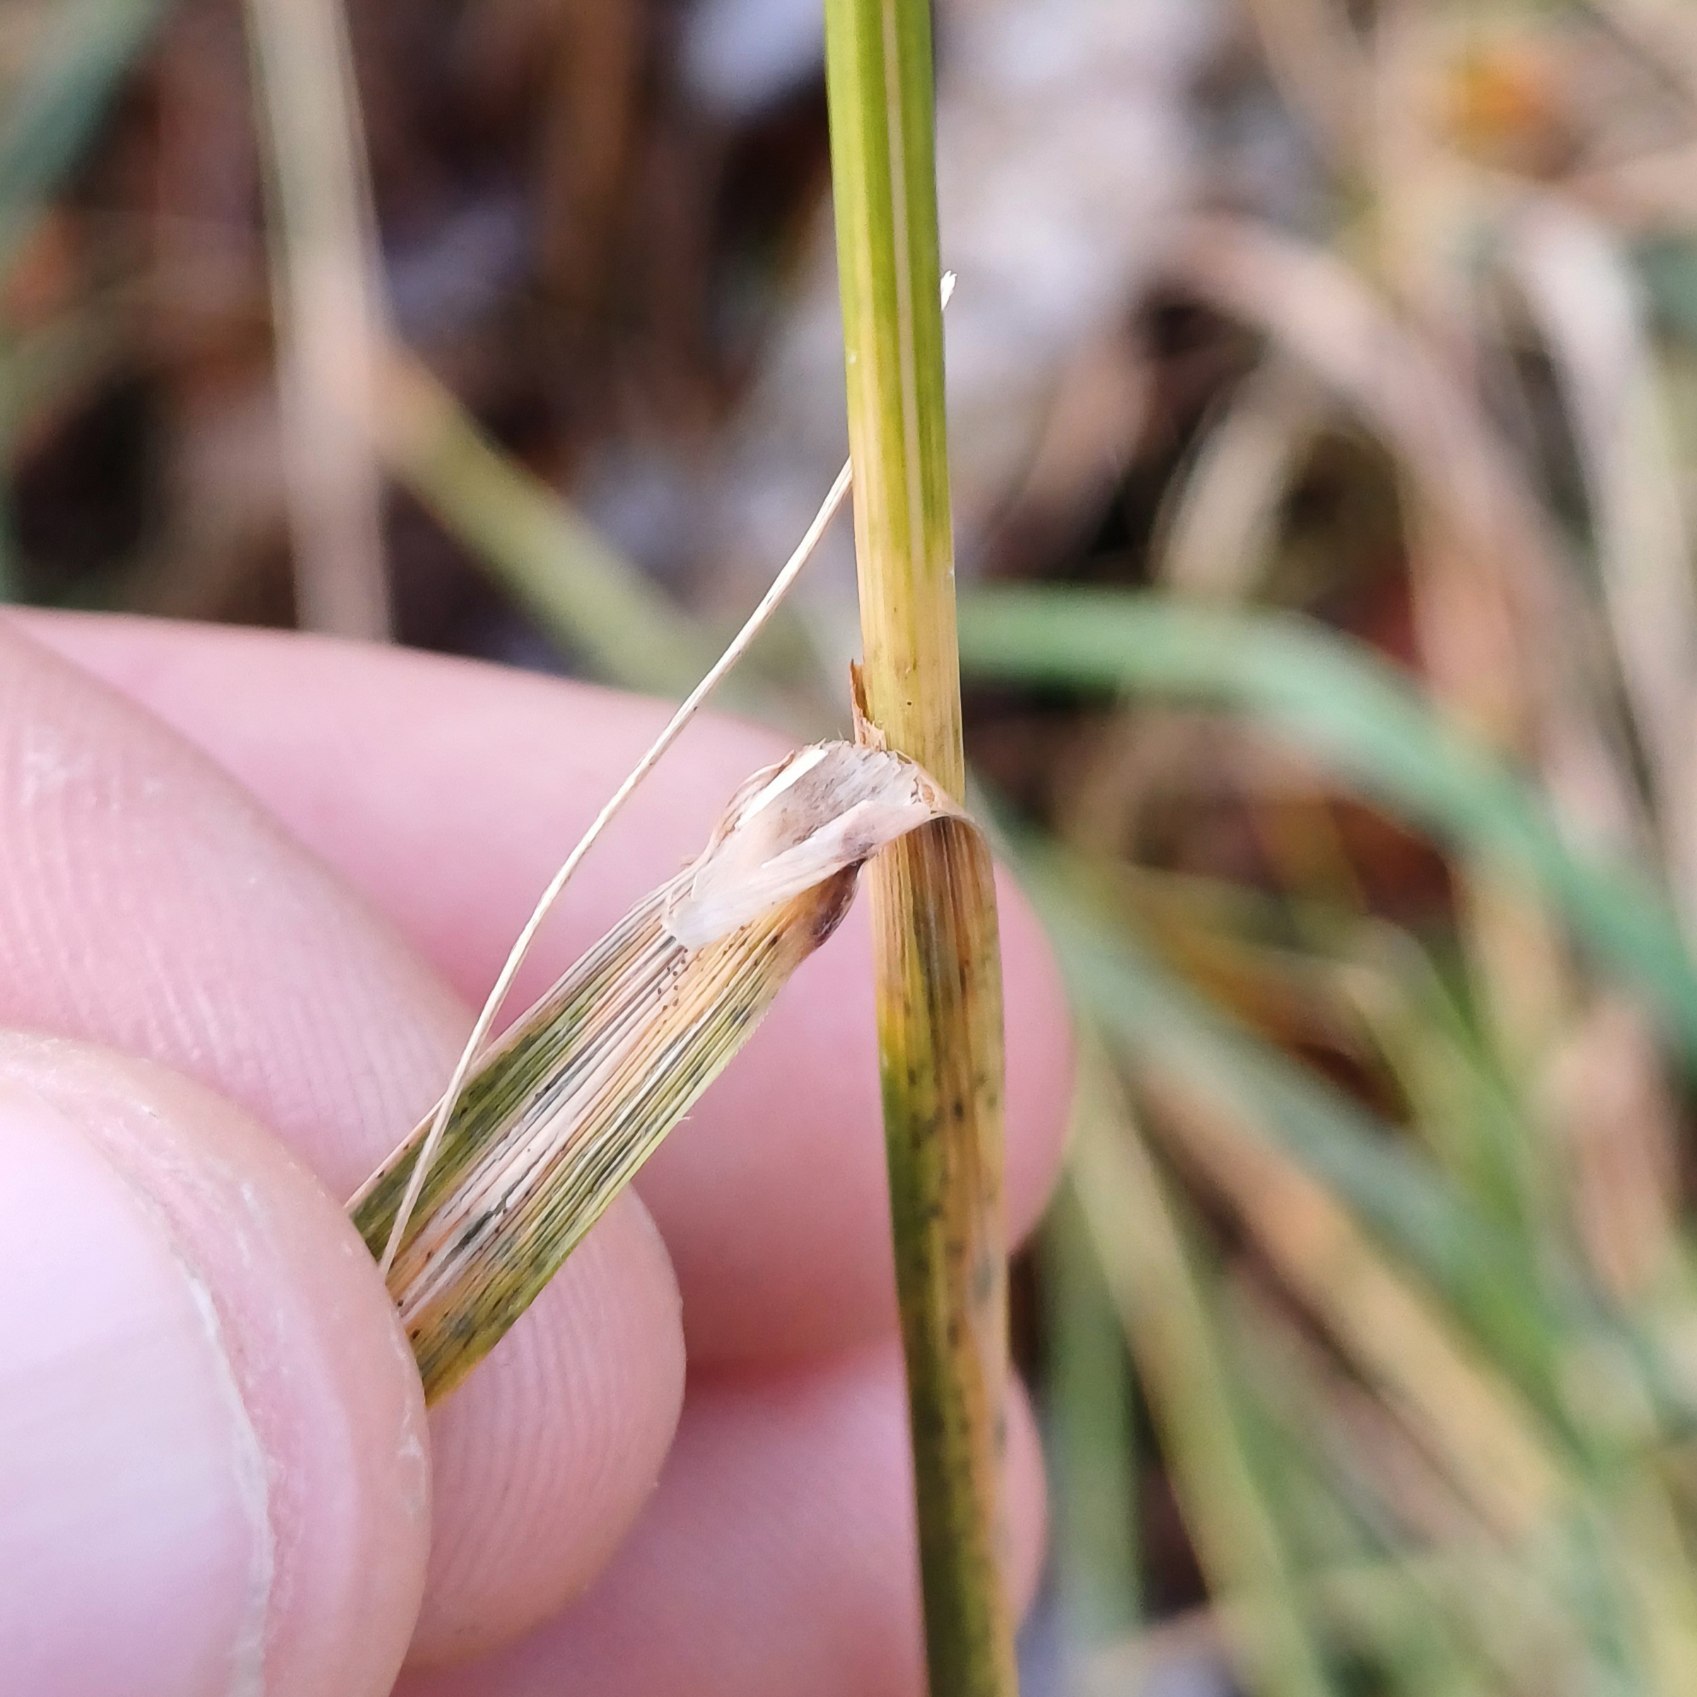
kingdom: Plantae
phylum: Tracheophyta
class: Liliopsida
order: Poales
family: Poaceae
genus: Calamagrostis
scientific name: Calamagrostis epigejos
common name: Bjerg-rørhvene
